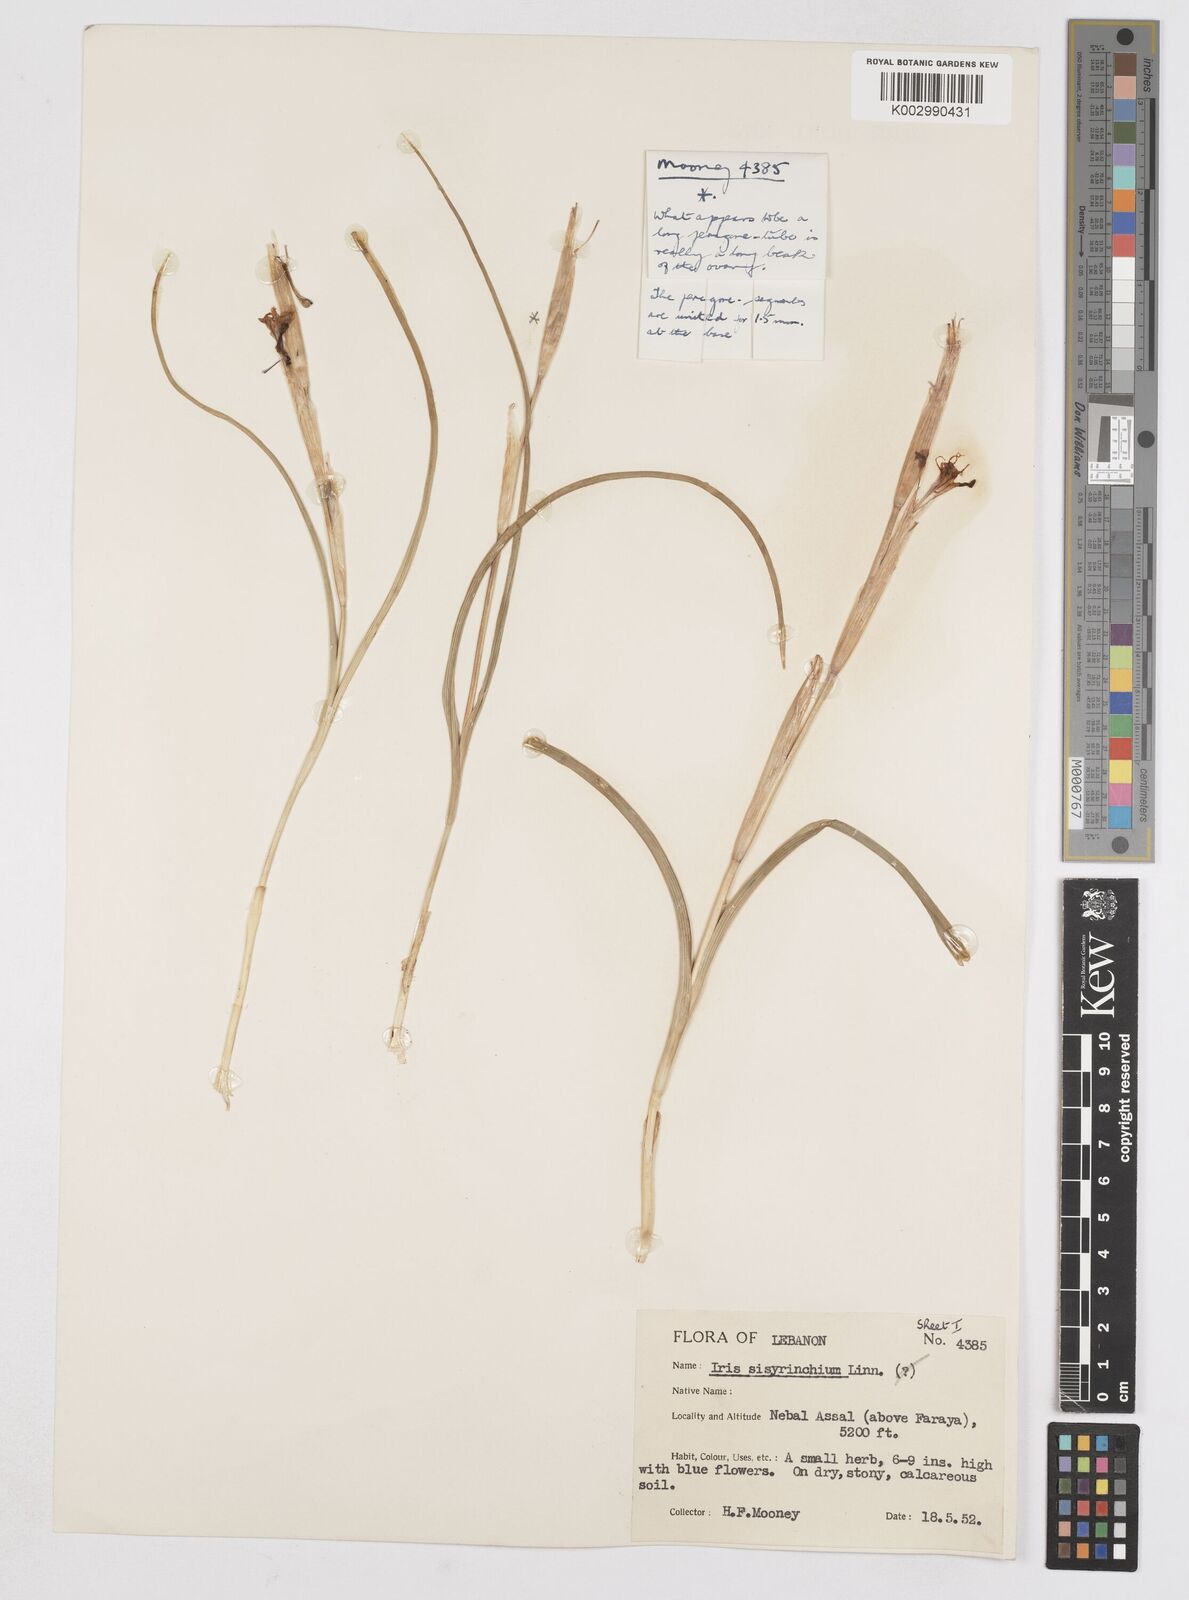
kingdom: Plantae
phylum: Tracheophyta
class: Liliopsida
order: Asparagales
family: Iridaceae
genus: Moraea
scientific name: Moraea sisyrinchium
